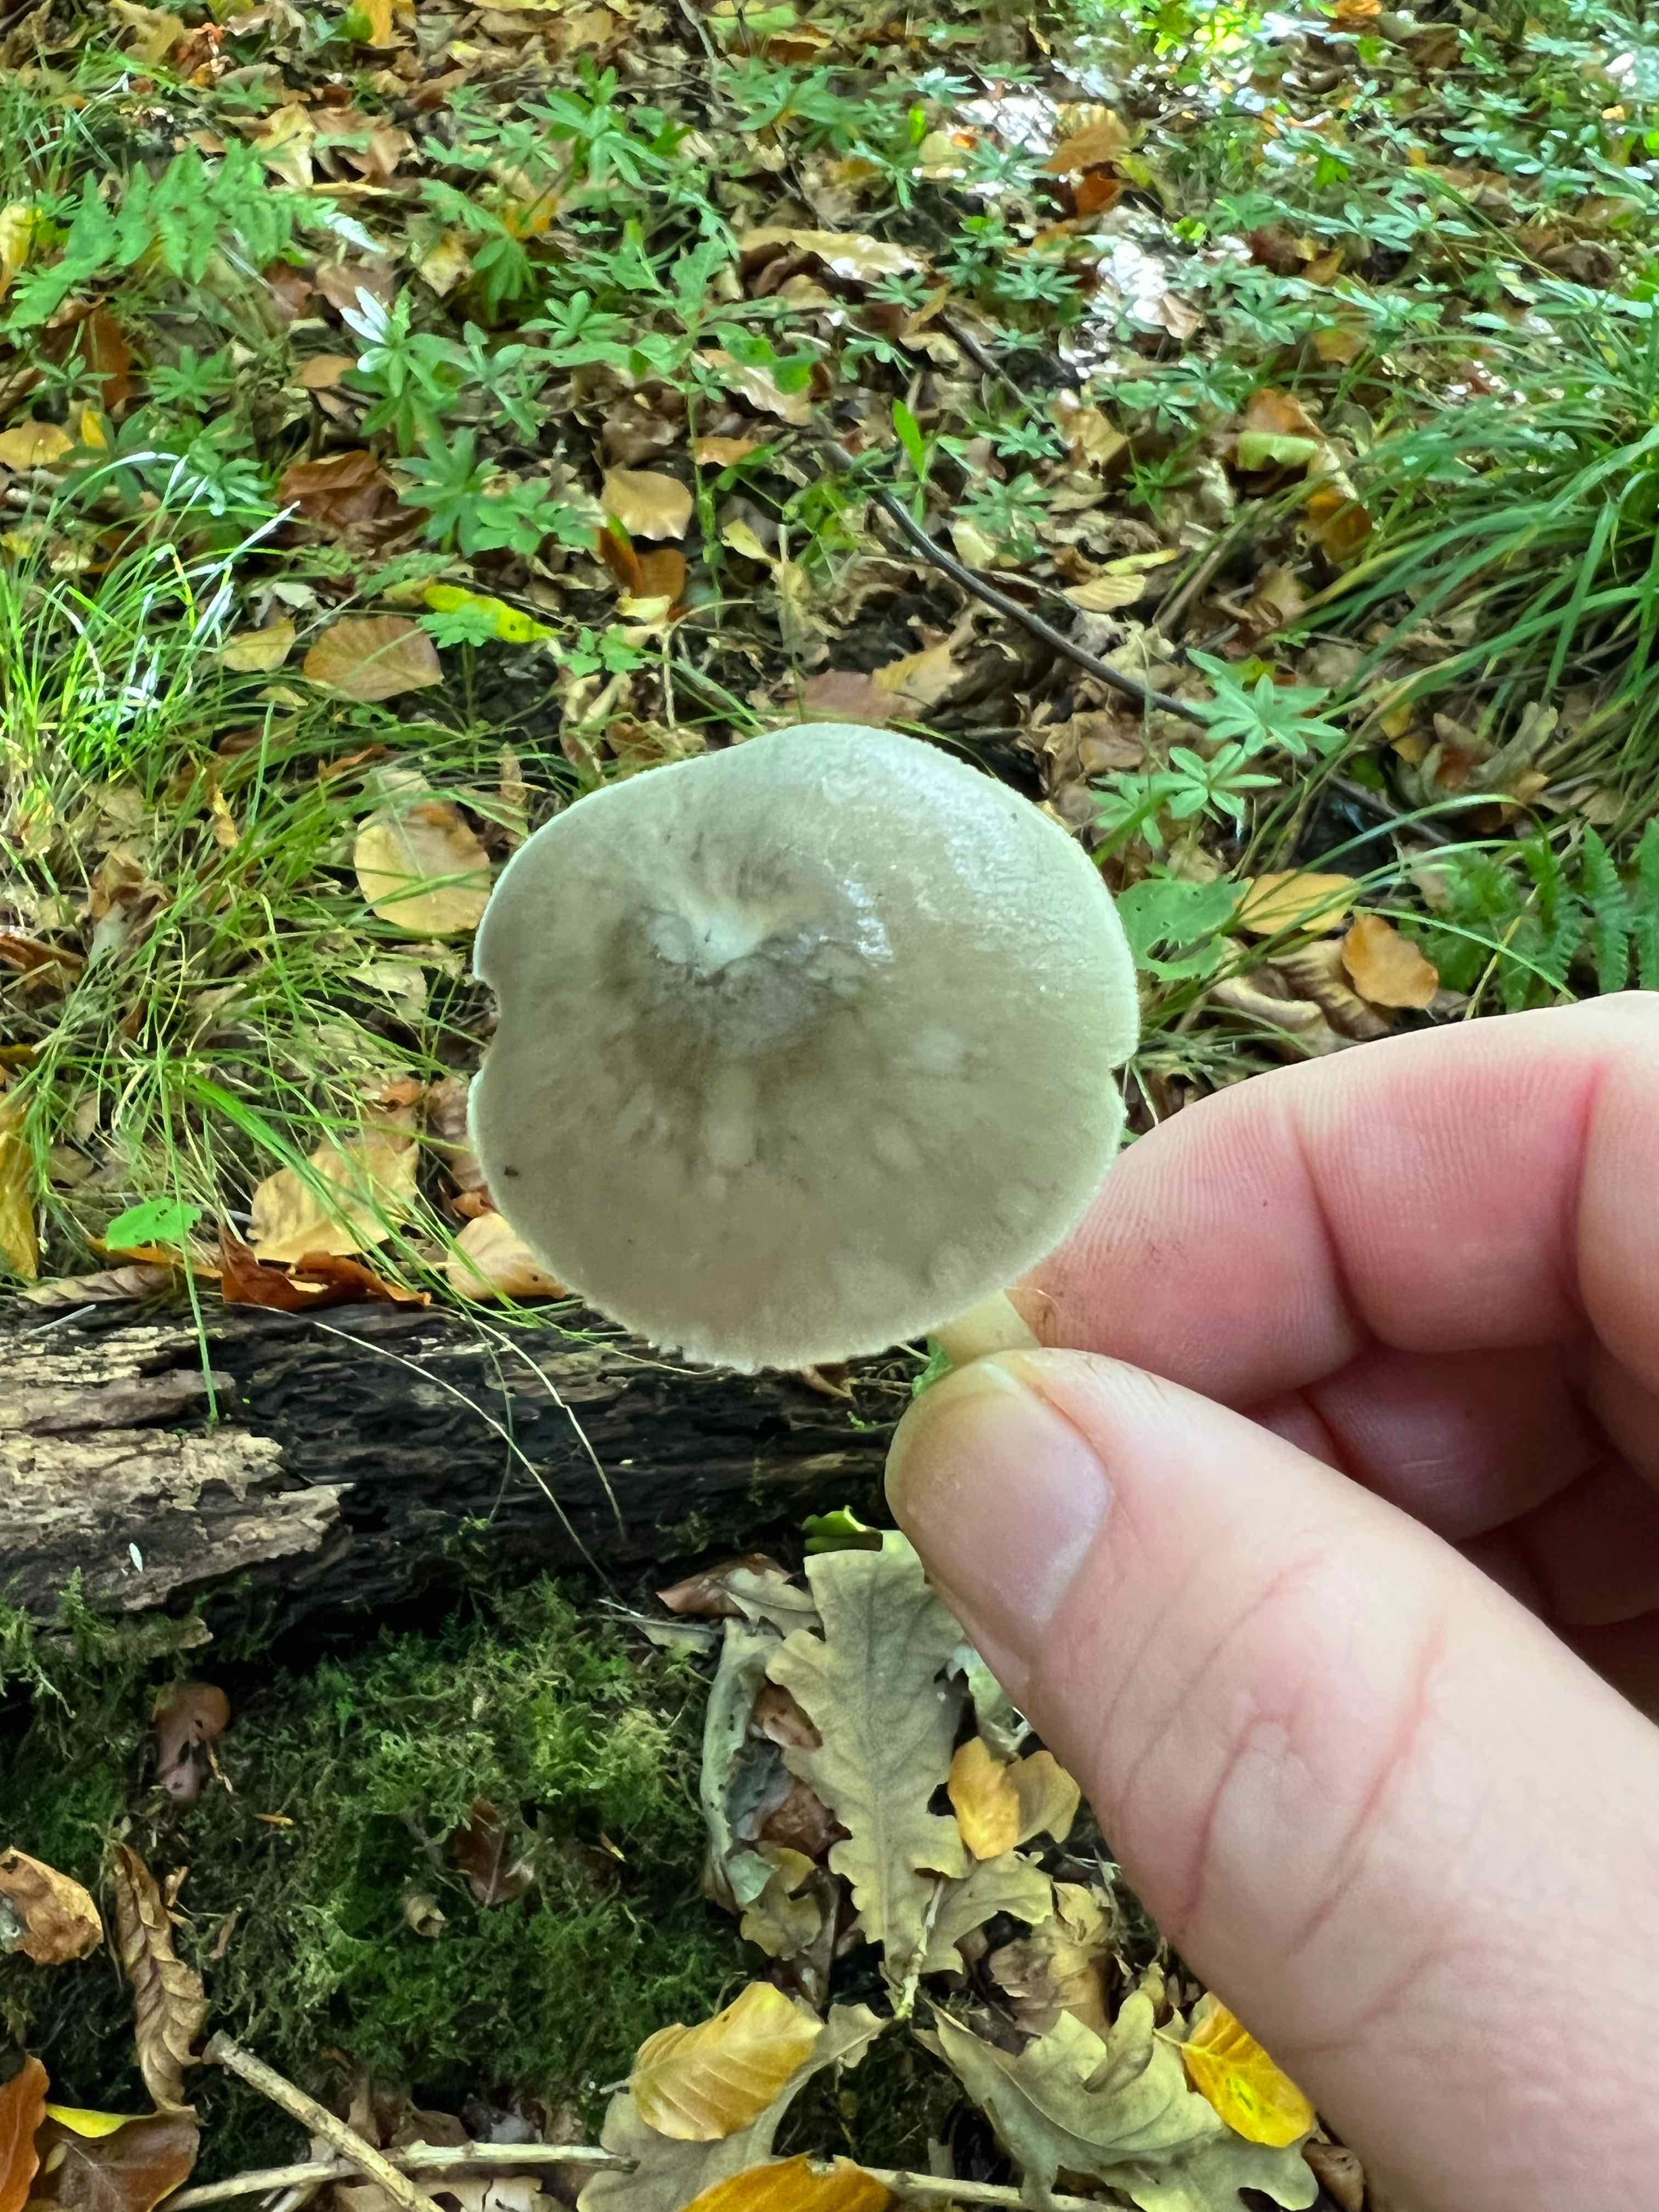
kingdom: Fungi
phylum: Basidiomycota
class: Agaricomycetes
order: Agaricales
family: Pluteaceae
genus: Pluteus
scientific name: Pluteus salicinus
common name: stiv skærmhat
